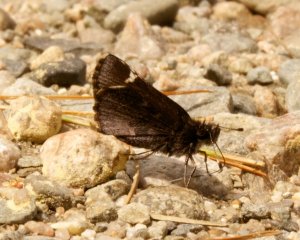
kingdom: Animalia
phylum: Arthropoda
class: Insecta
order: Lepidoptera
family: Hesperiidae
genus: Mastor
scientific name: Mastor vialis
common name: Common Roadside-Skipper
